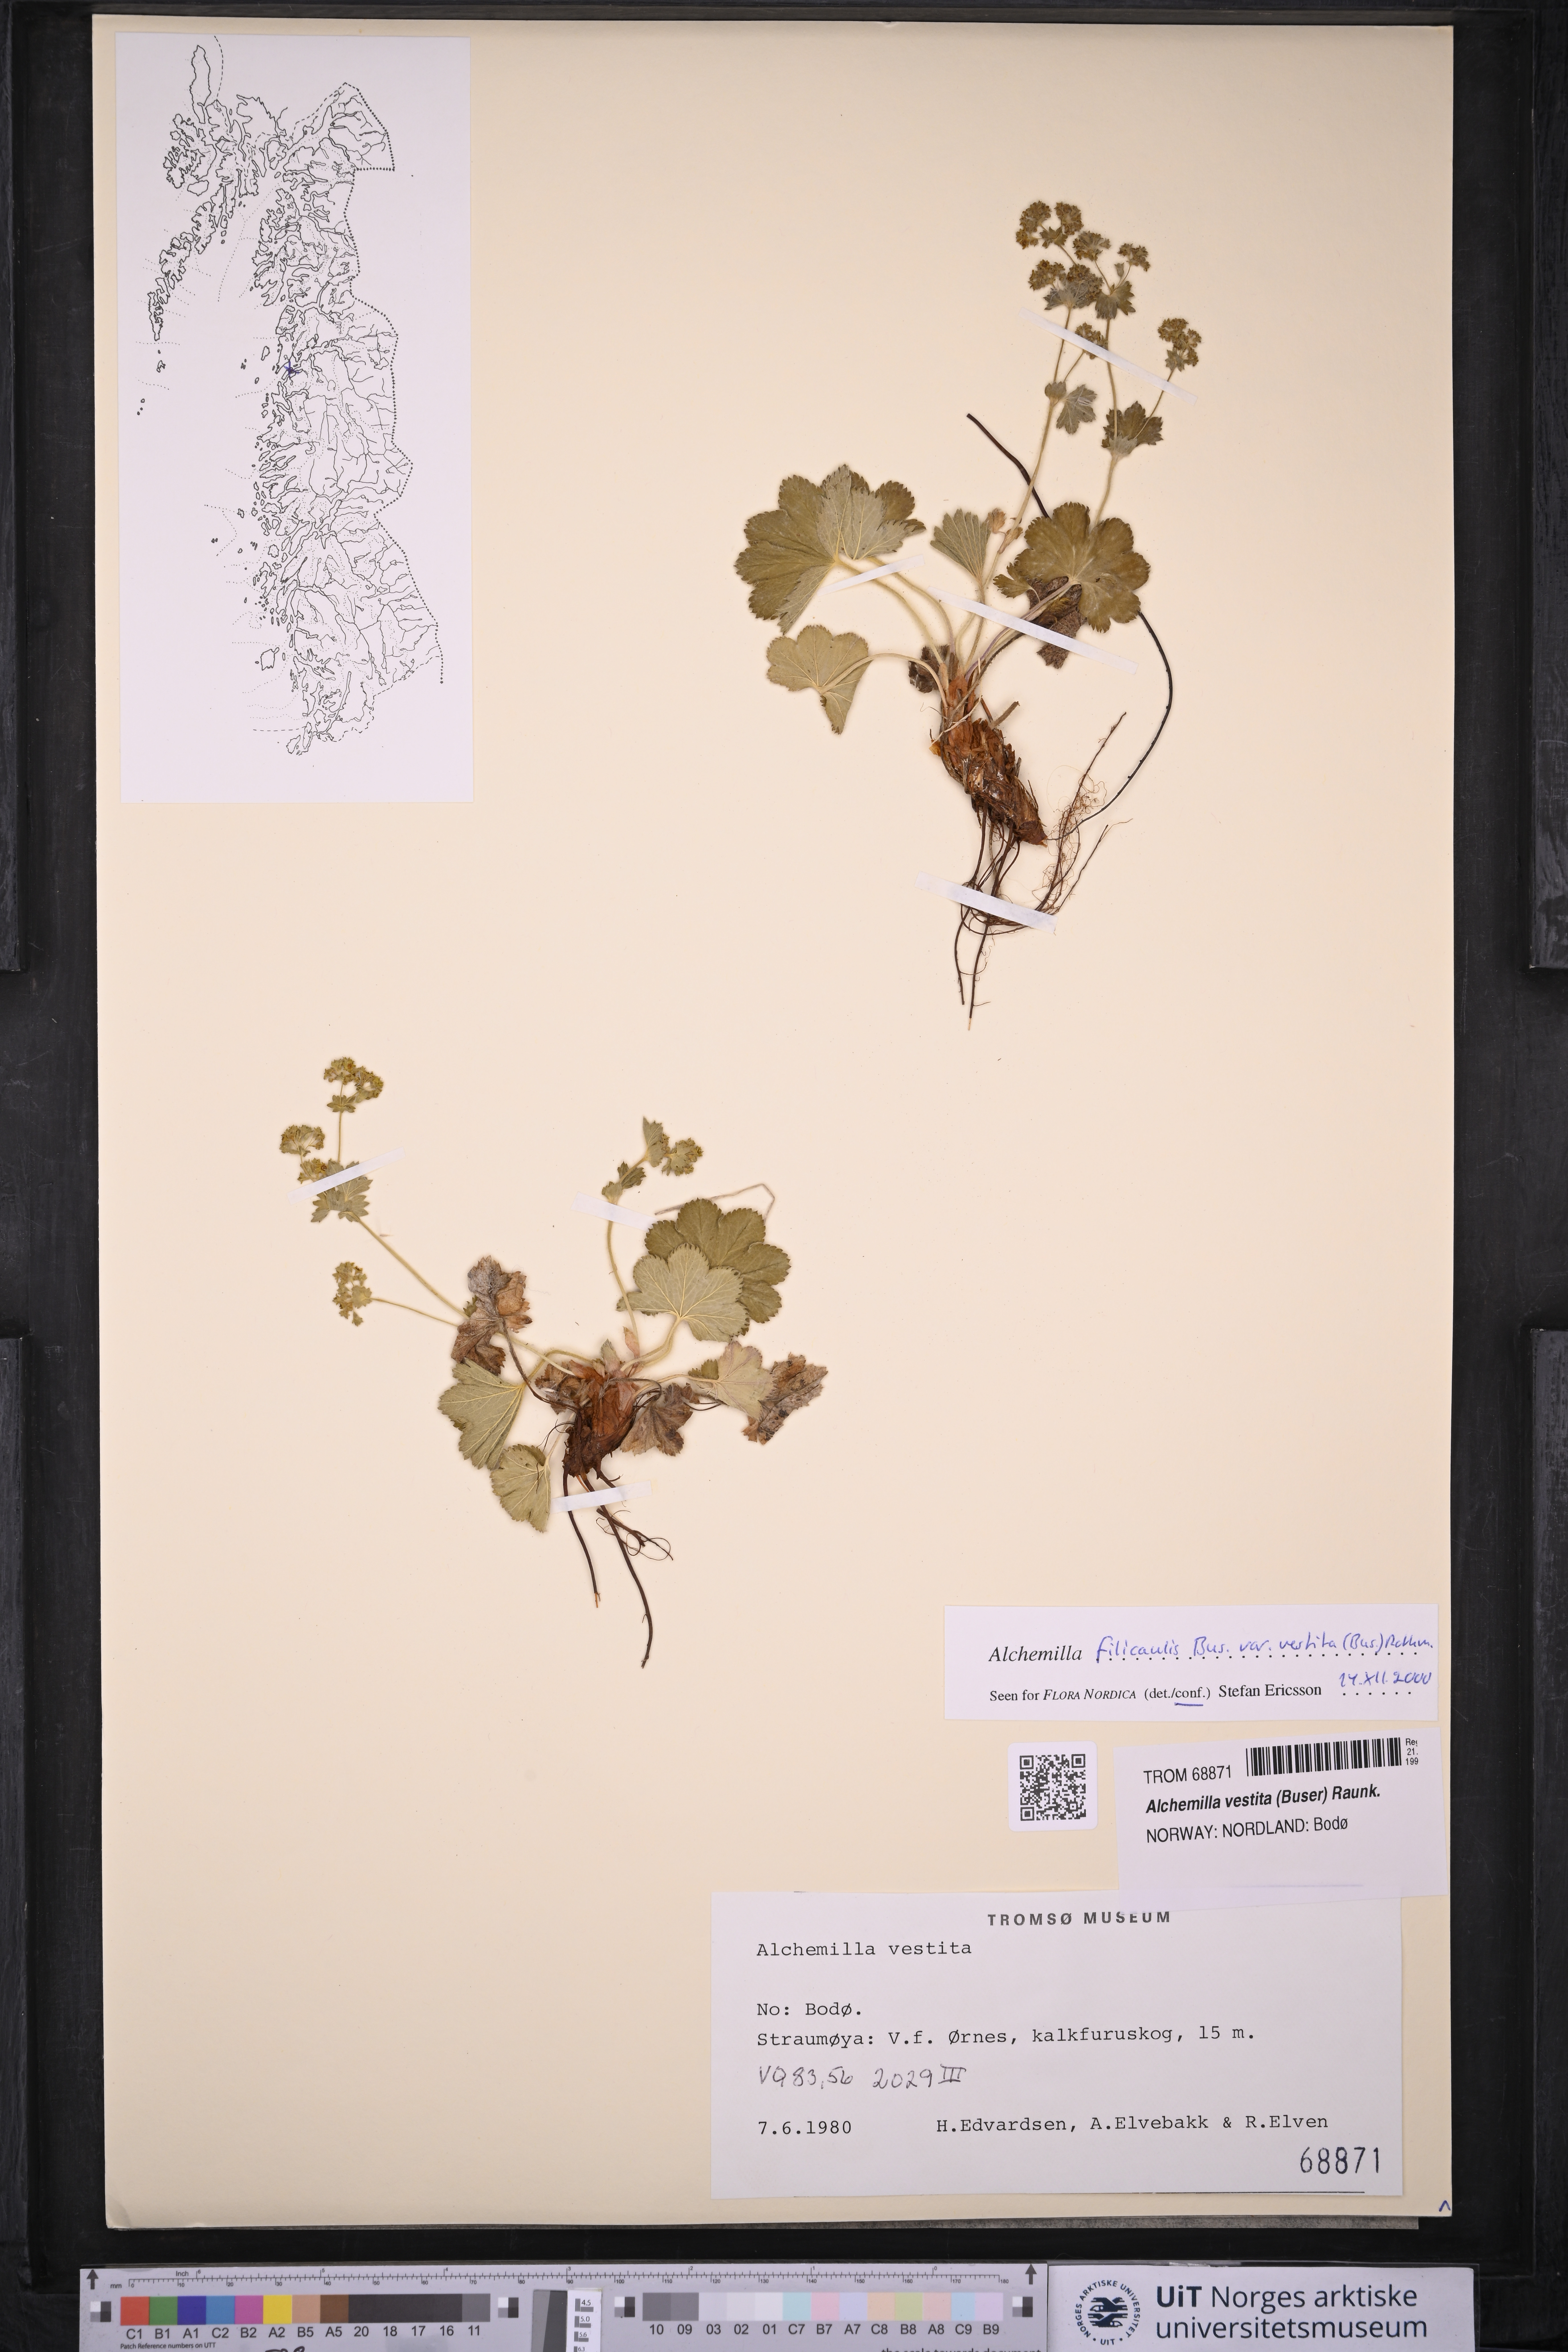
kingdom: Plantae
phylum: Tracheophyta
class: Magnoliopsida
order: Rosales
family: Rosaceae
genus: Alchemilla
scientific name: Alchemilla filicaulis
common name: Hairy lady's-mantle
